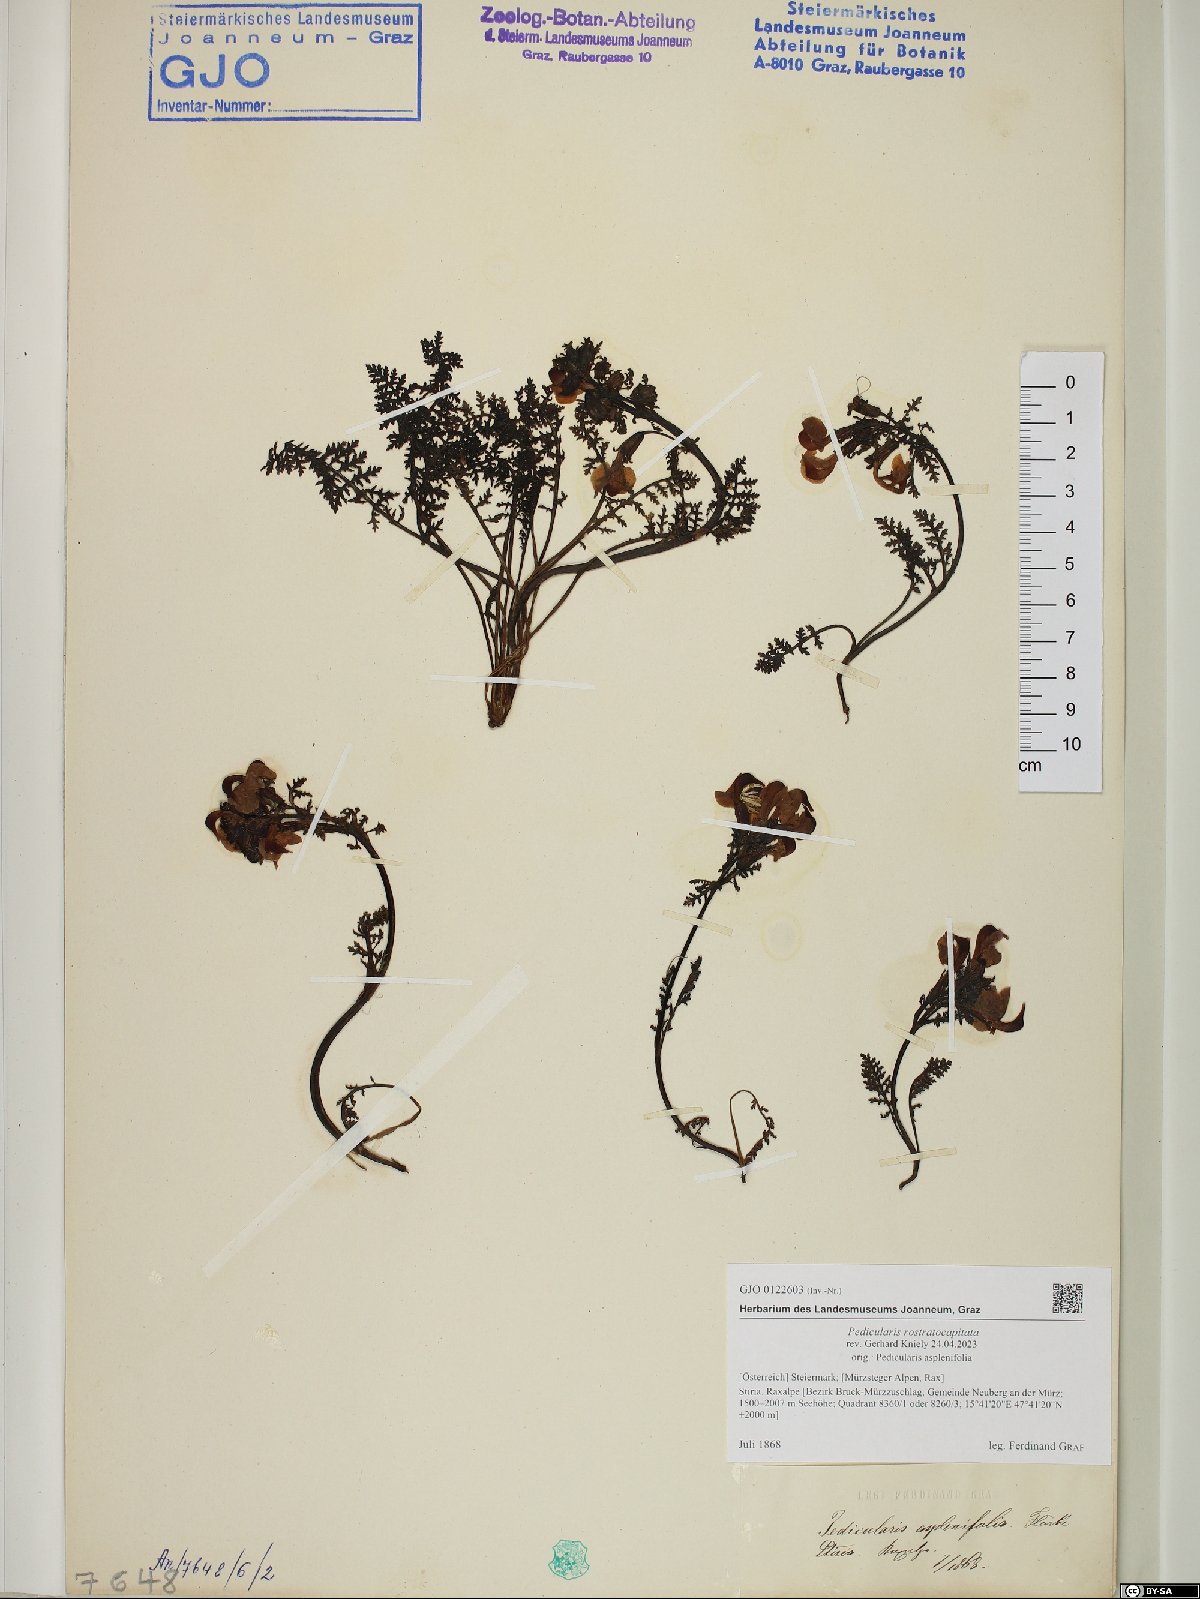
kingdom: Plantae
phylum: Tracheophyta
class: Magnoliopsida
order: Lamiales
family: Orobanchaceae
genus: Pedicularis
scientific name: Pedicularis rostratocapitata
